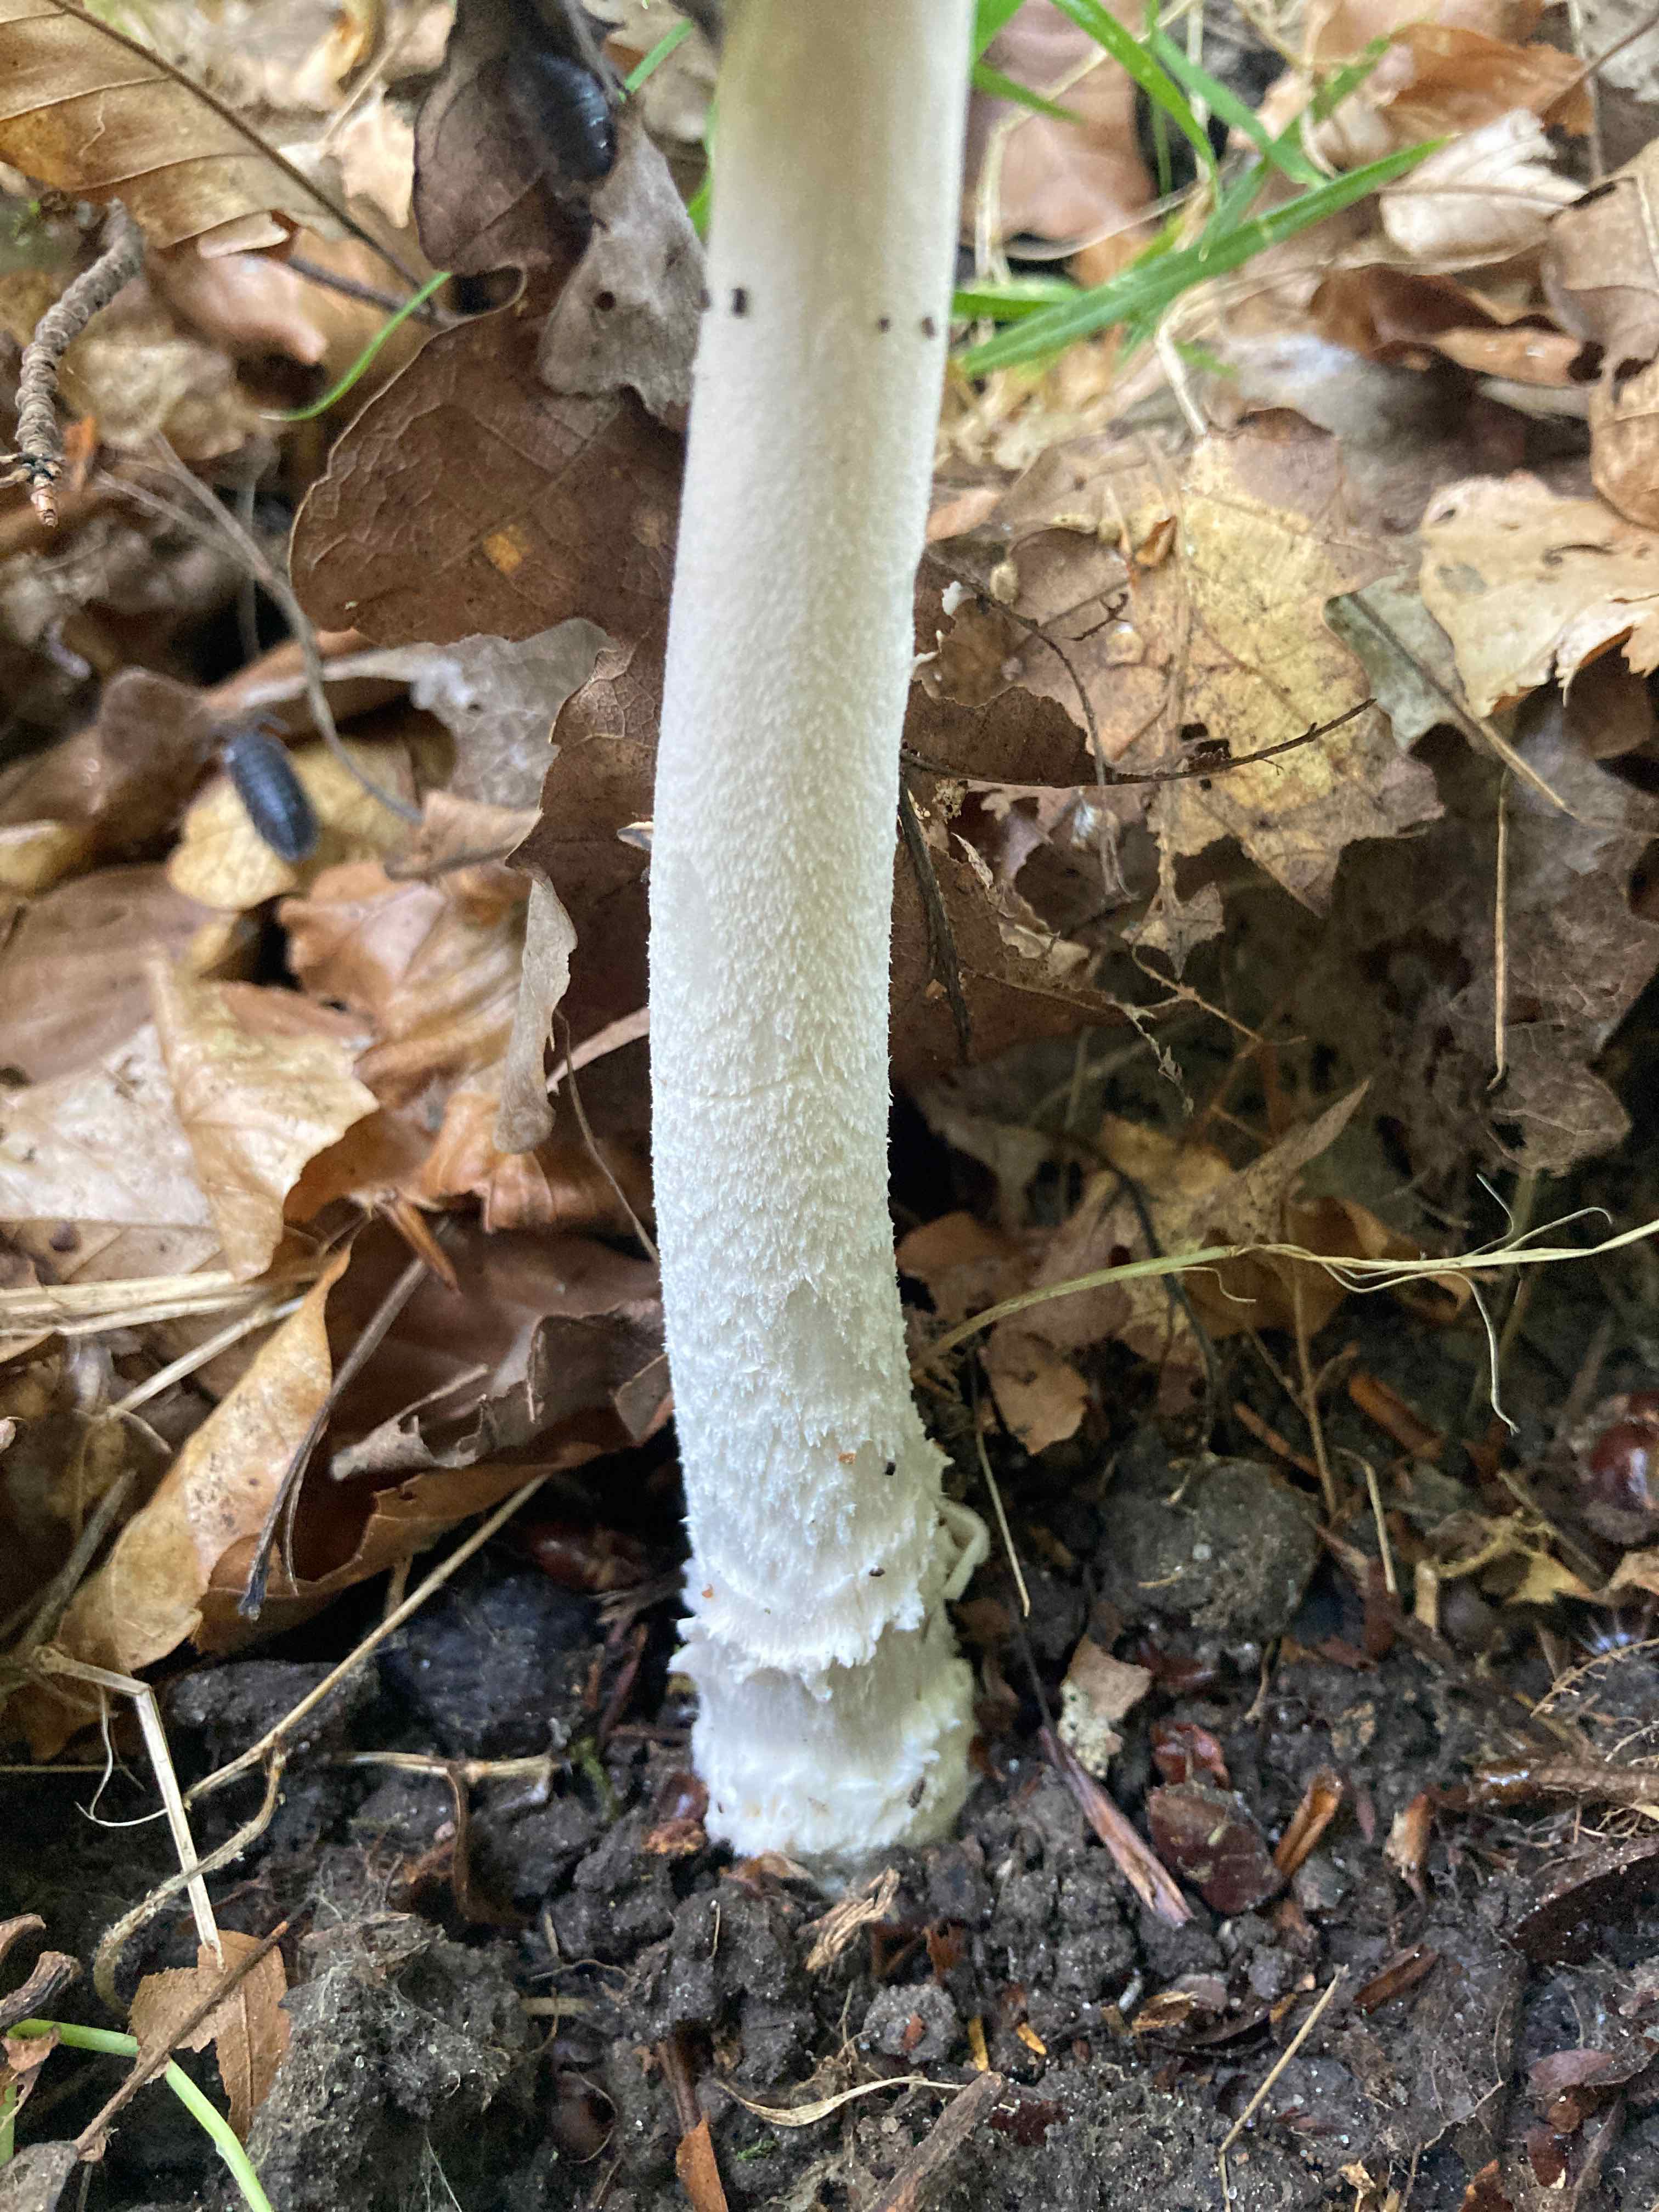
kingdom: Fungi
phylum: Basidiomycota
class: Agaricomycetes
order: Agaricales
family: Amanitaceae
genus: Amanita
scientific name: Amanita
